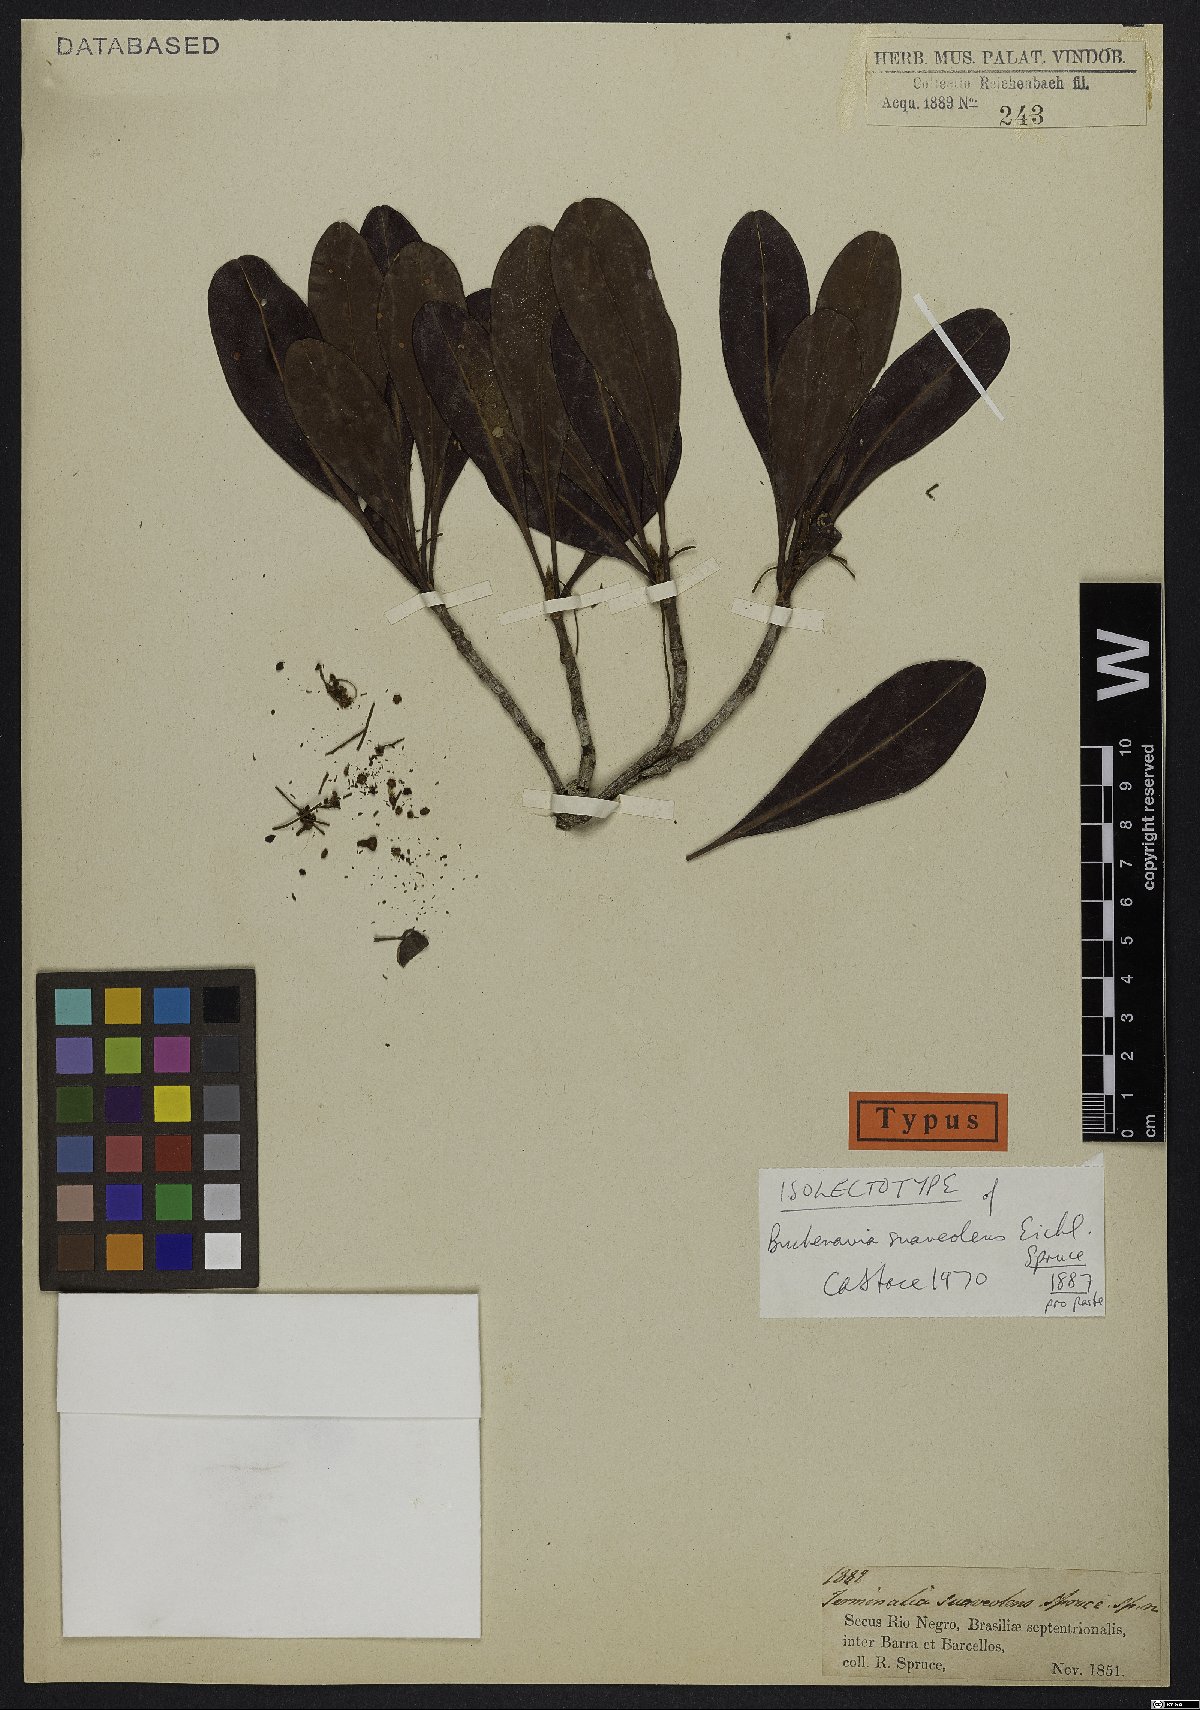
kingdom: Plantae
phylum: Tracheophyta
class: Magnoliopsida
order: Myrtales
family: Combretaceae
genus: Terminalia
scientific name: Terminalia suaveolens
